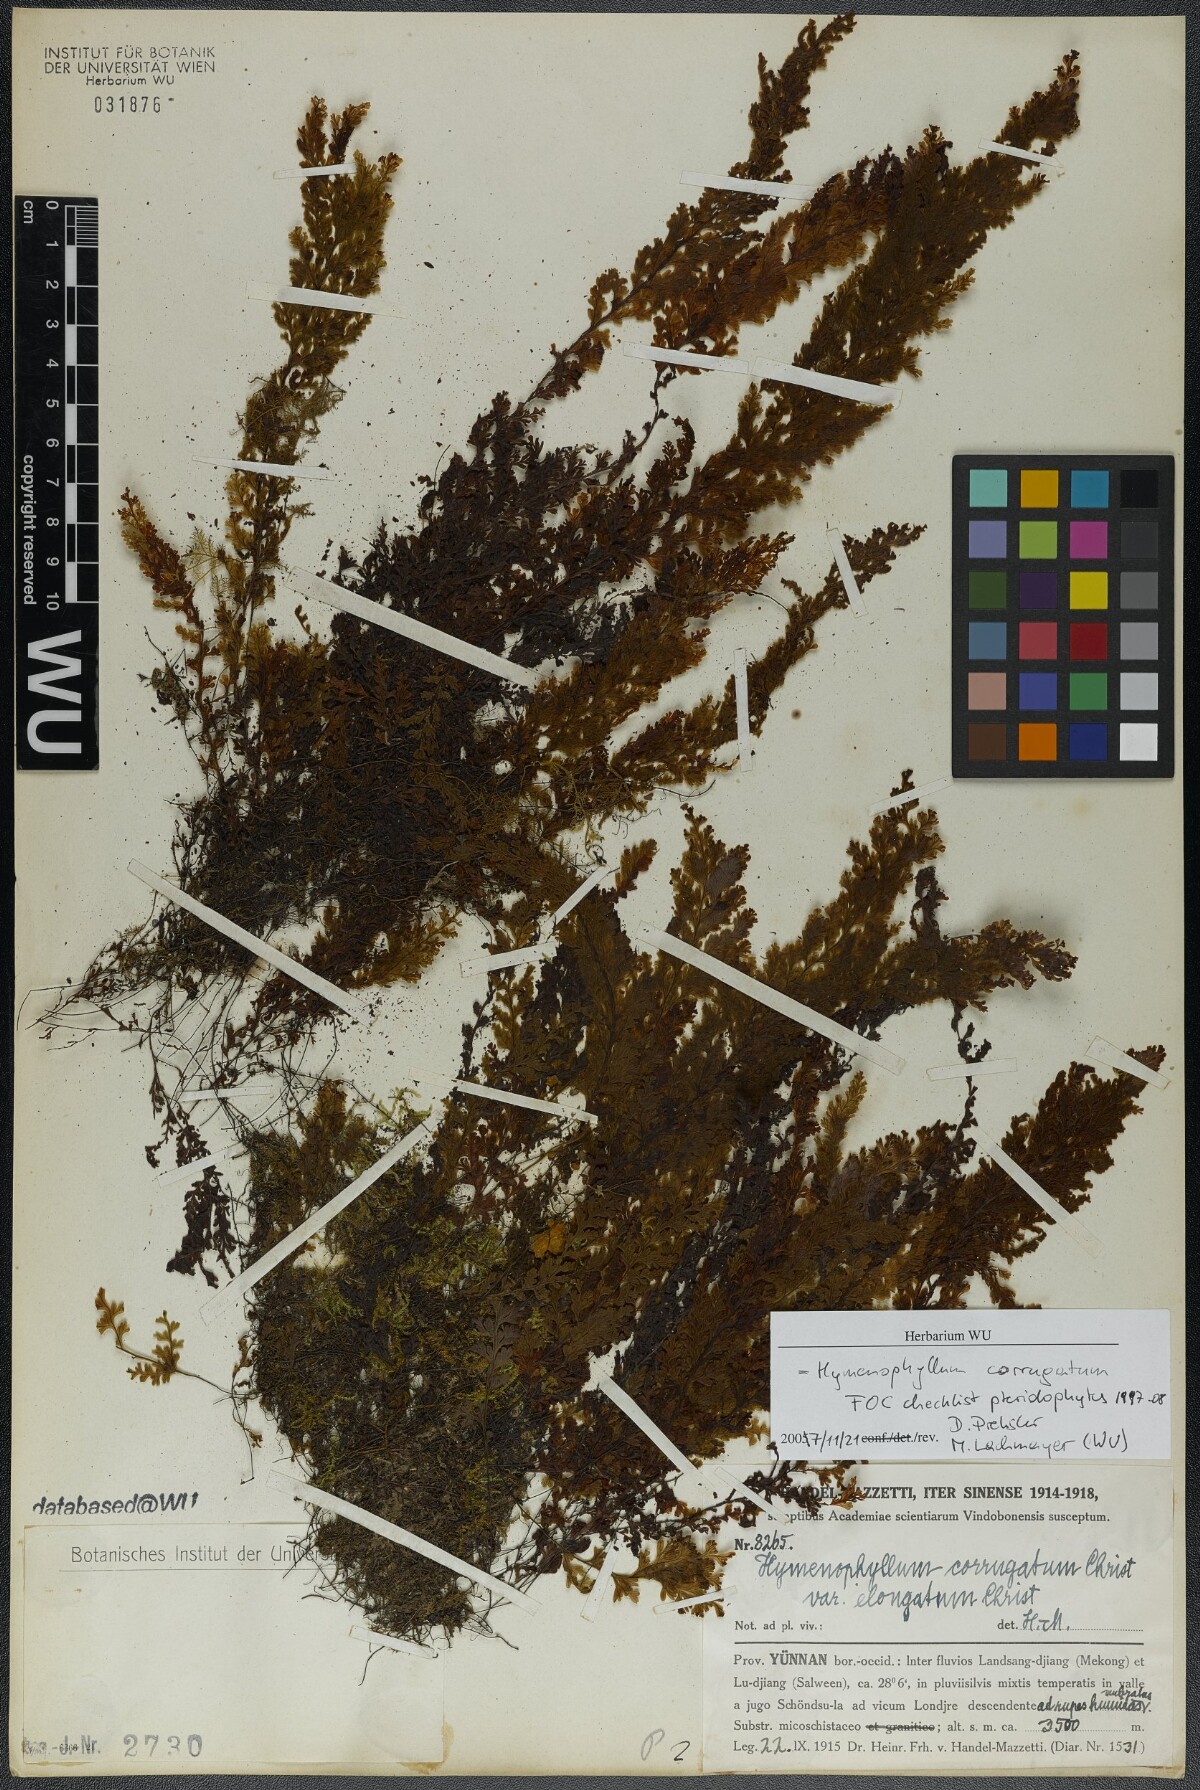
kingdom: Plantae
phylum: Tracheophyta
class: Polypodiopsida
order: Hymenophyllales
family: Hymenophyllaceae
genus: Hymenophyllum
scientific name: Hymenophyllum corrugatum
